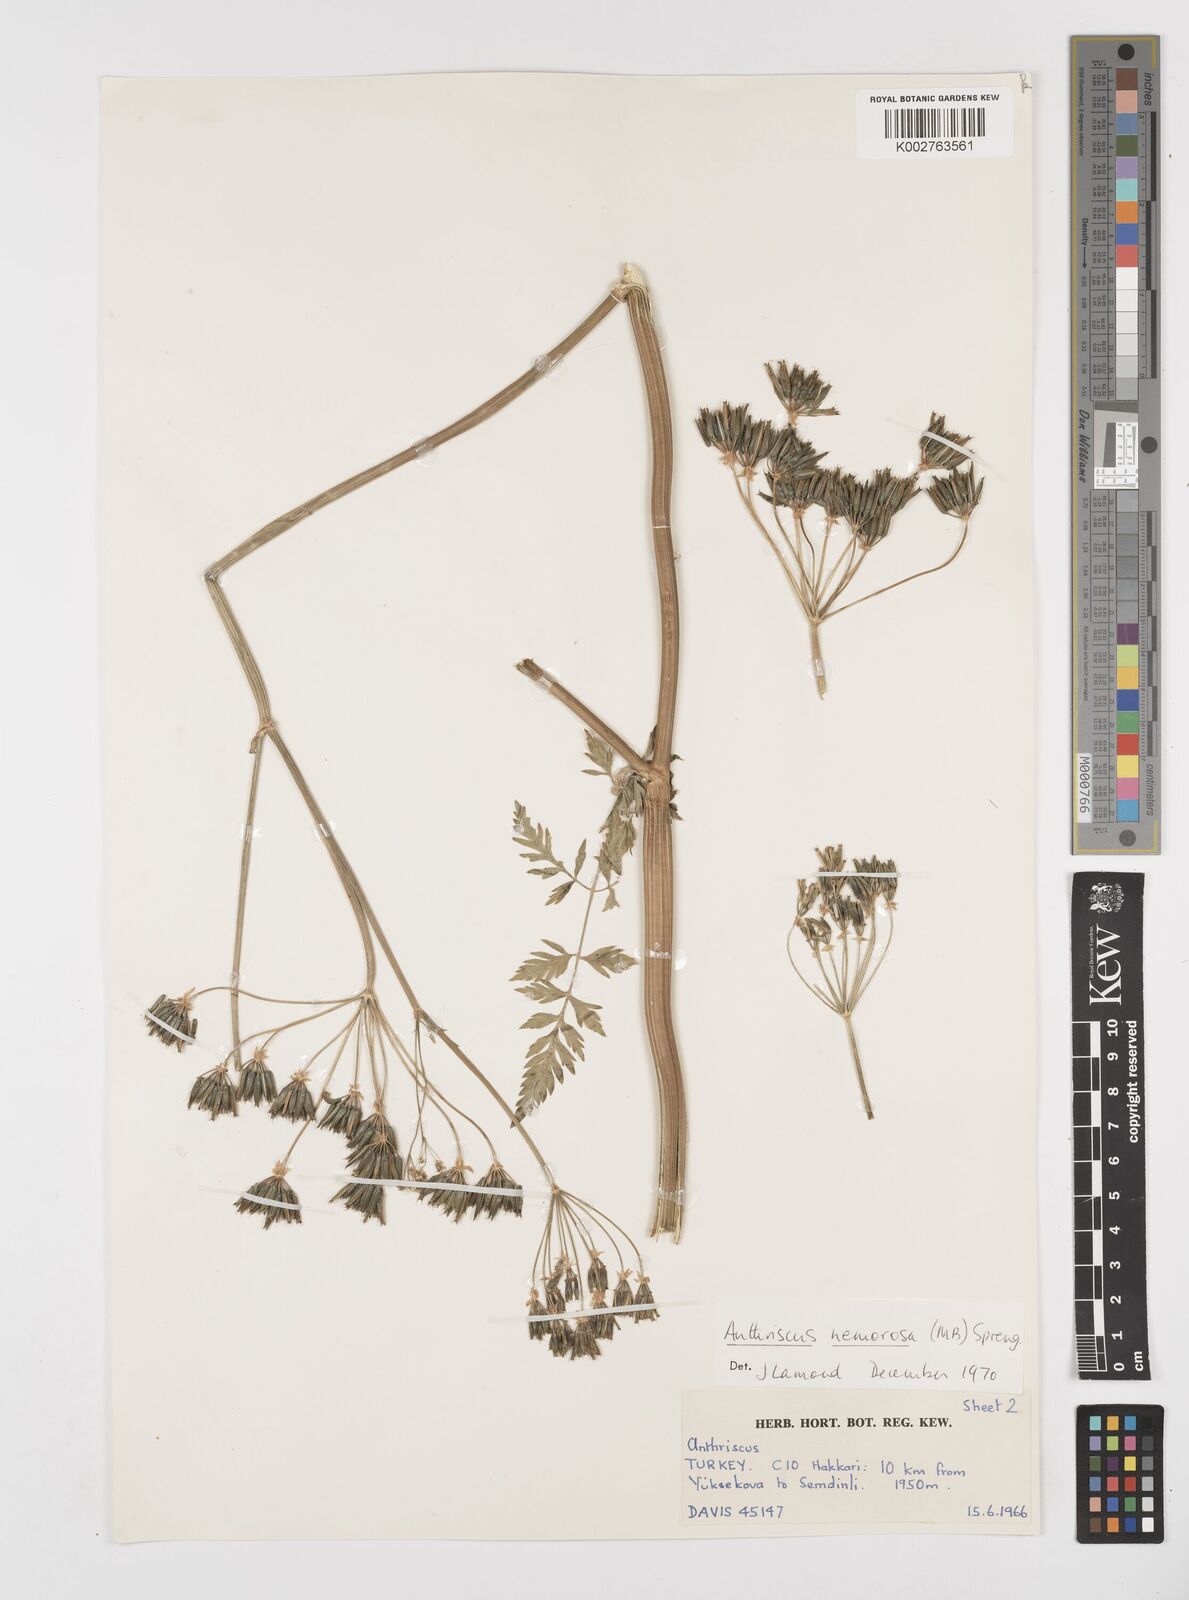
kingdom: Plantae
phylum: Tracheophyta
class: Magnoliopsida
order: Apiales
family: Apiaceae
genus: Anthriscus
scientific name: Anthriscus sylvestris
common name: Cow parsley
